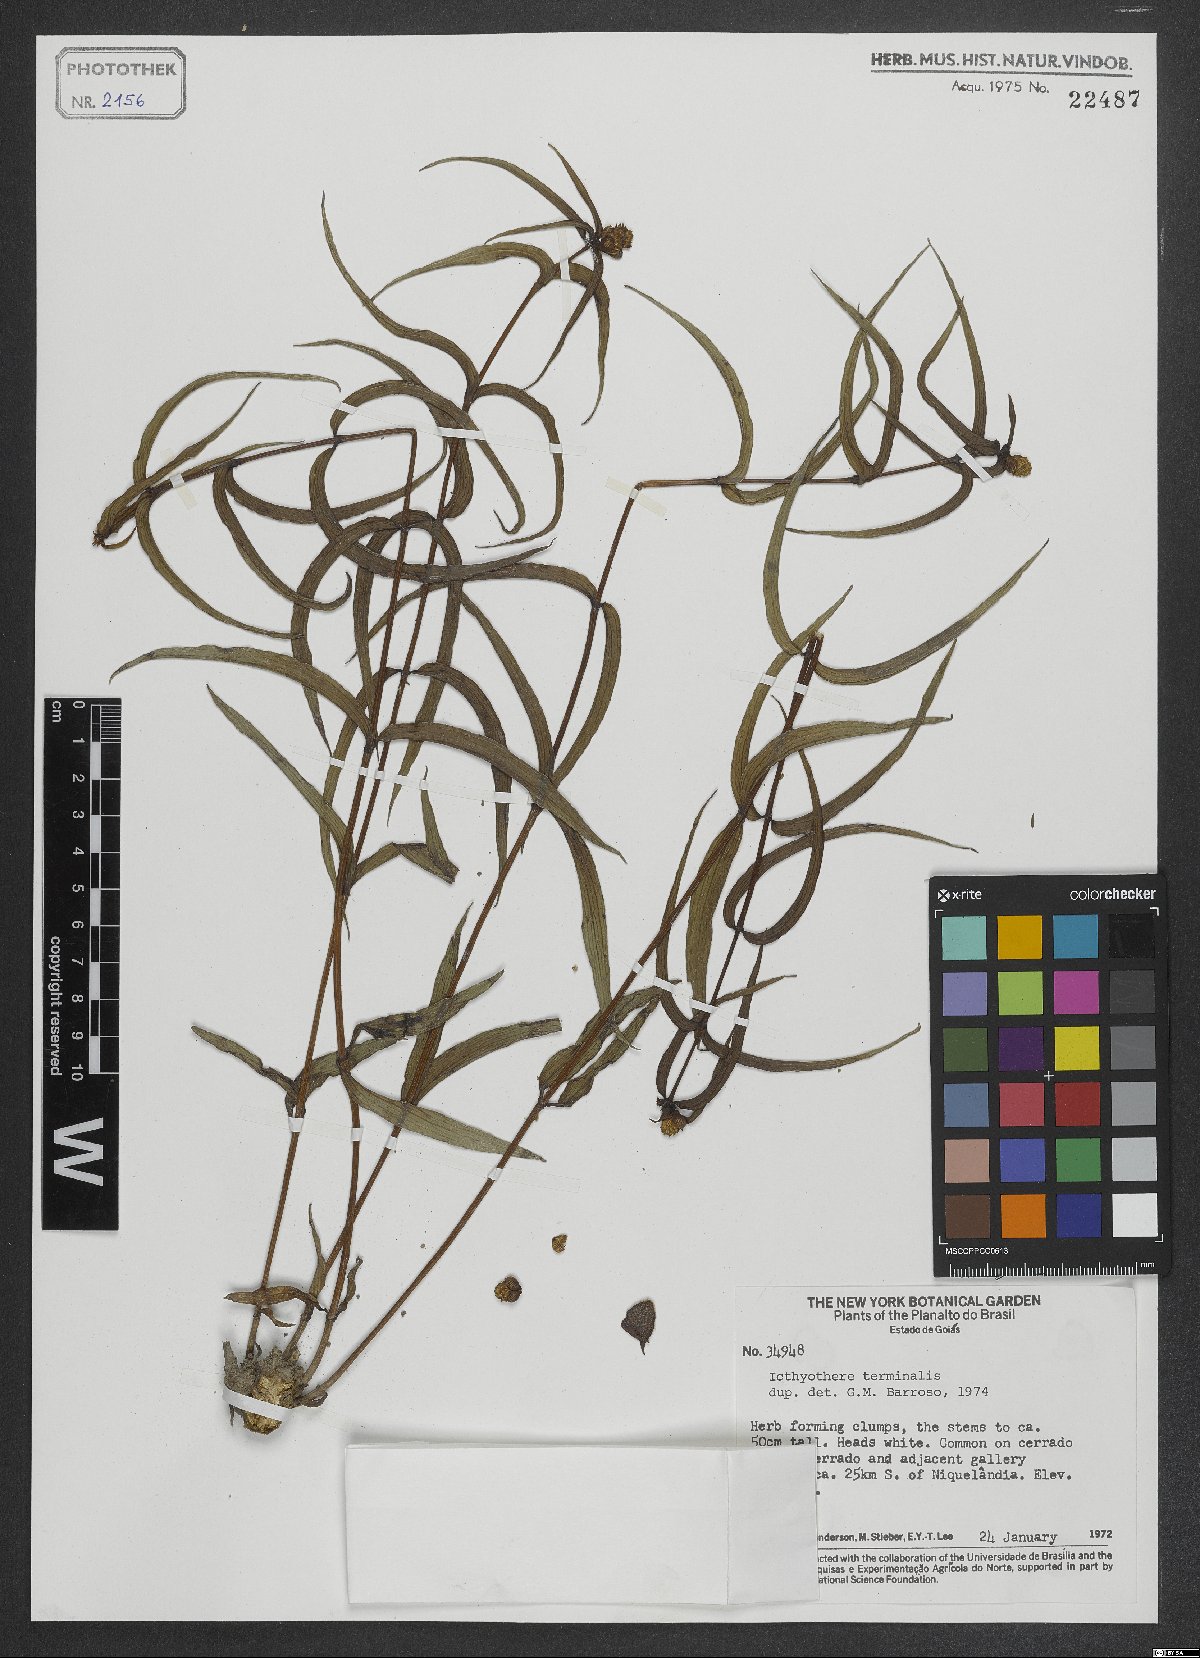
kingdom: Plantae
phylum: Tracheophyta
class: Magnoliopsida
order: Asterales
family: Asteraceae
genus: Ichthyothere
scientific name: Ichthyothere terminalis
